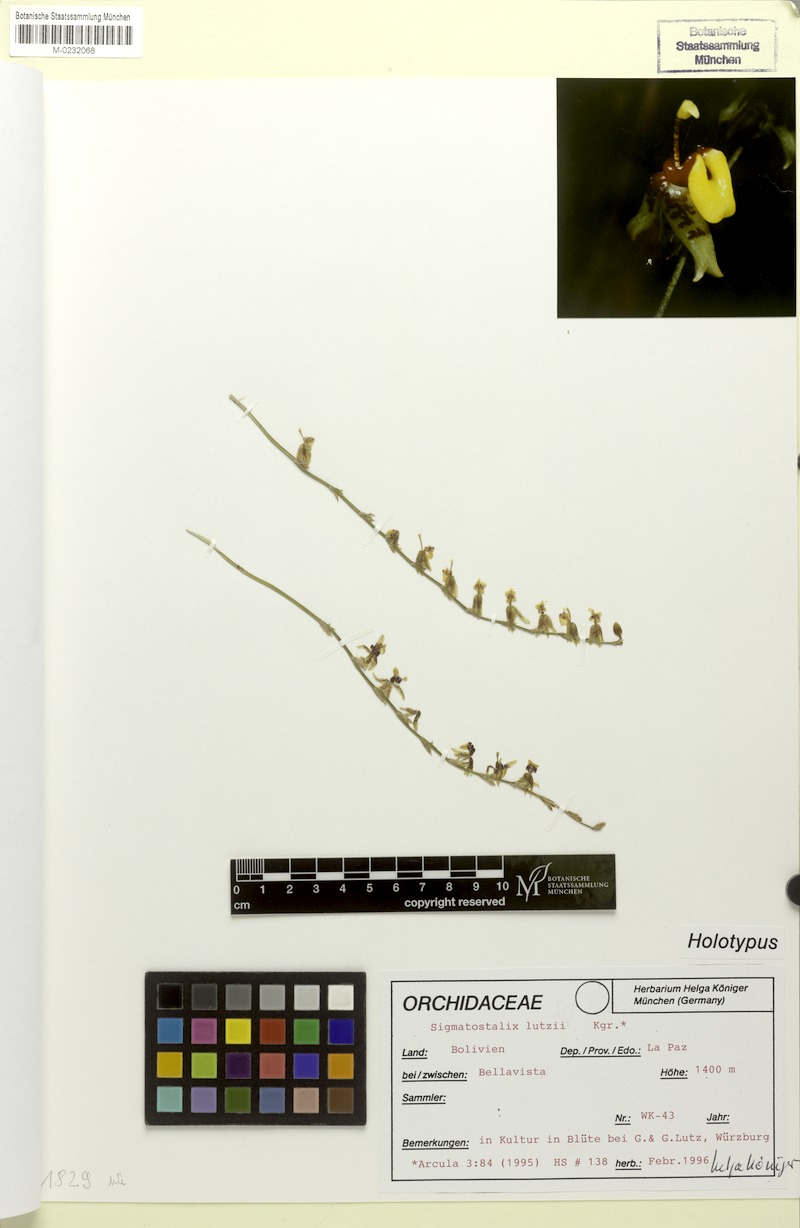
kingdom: Plantae
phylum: Tracheophyta
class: Liliopsida
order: Asparagales
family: Orchidaceae
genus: Oncidium
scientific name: Oncidium lutzii
